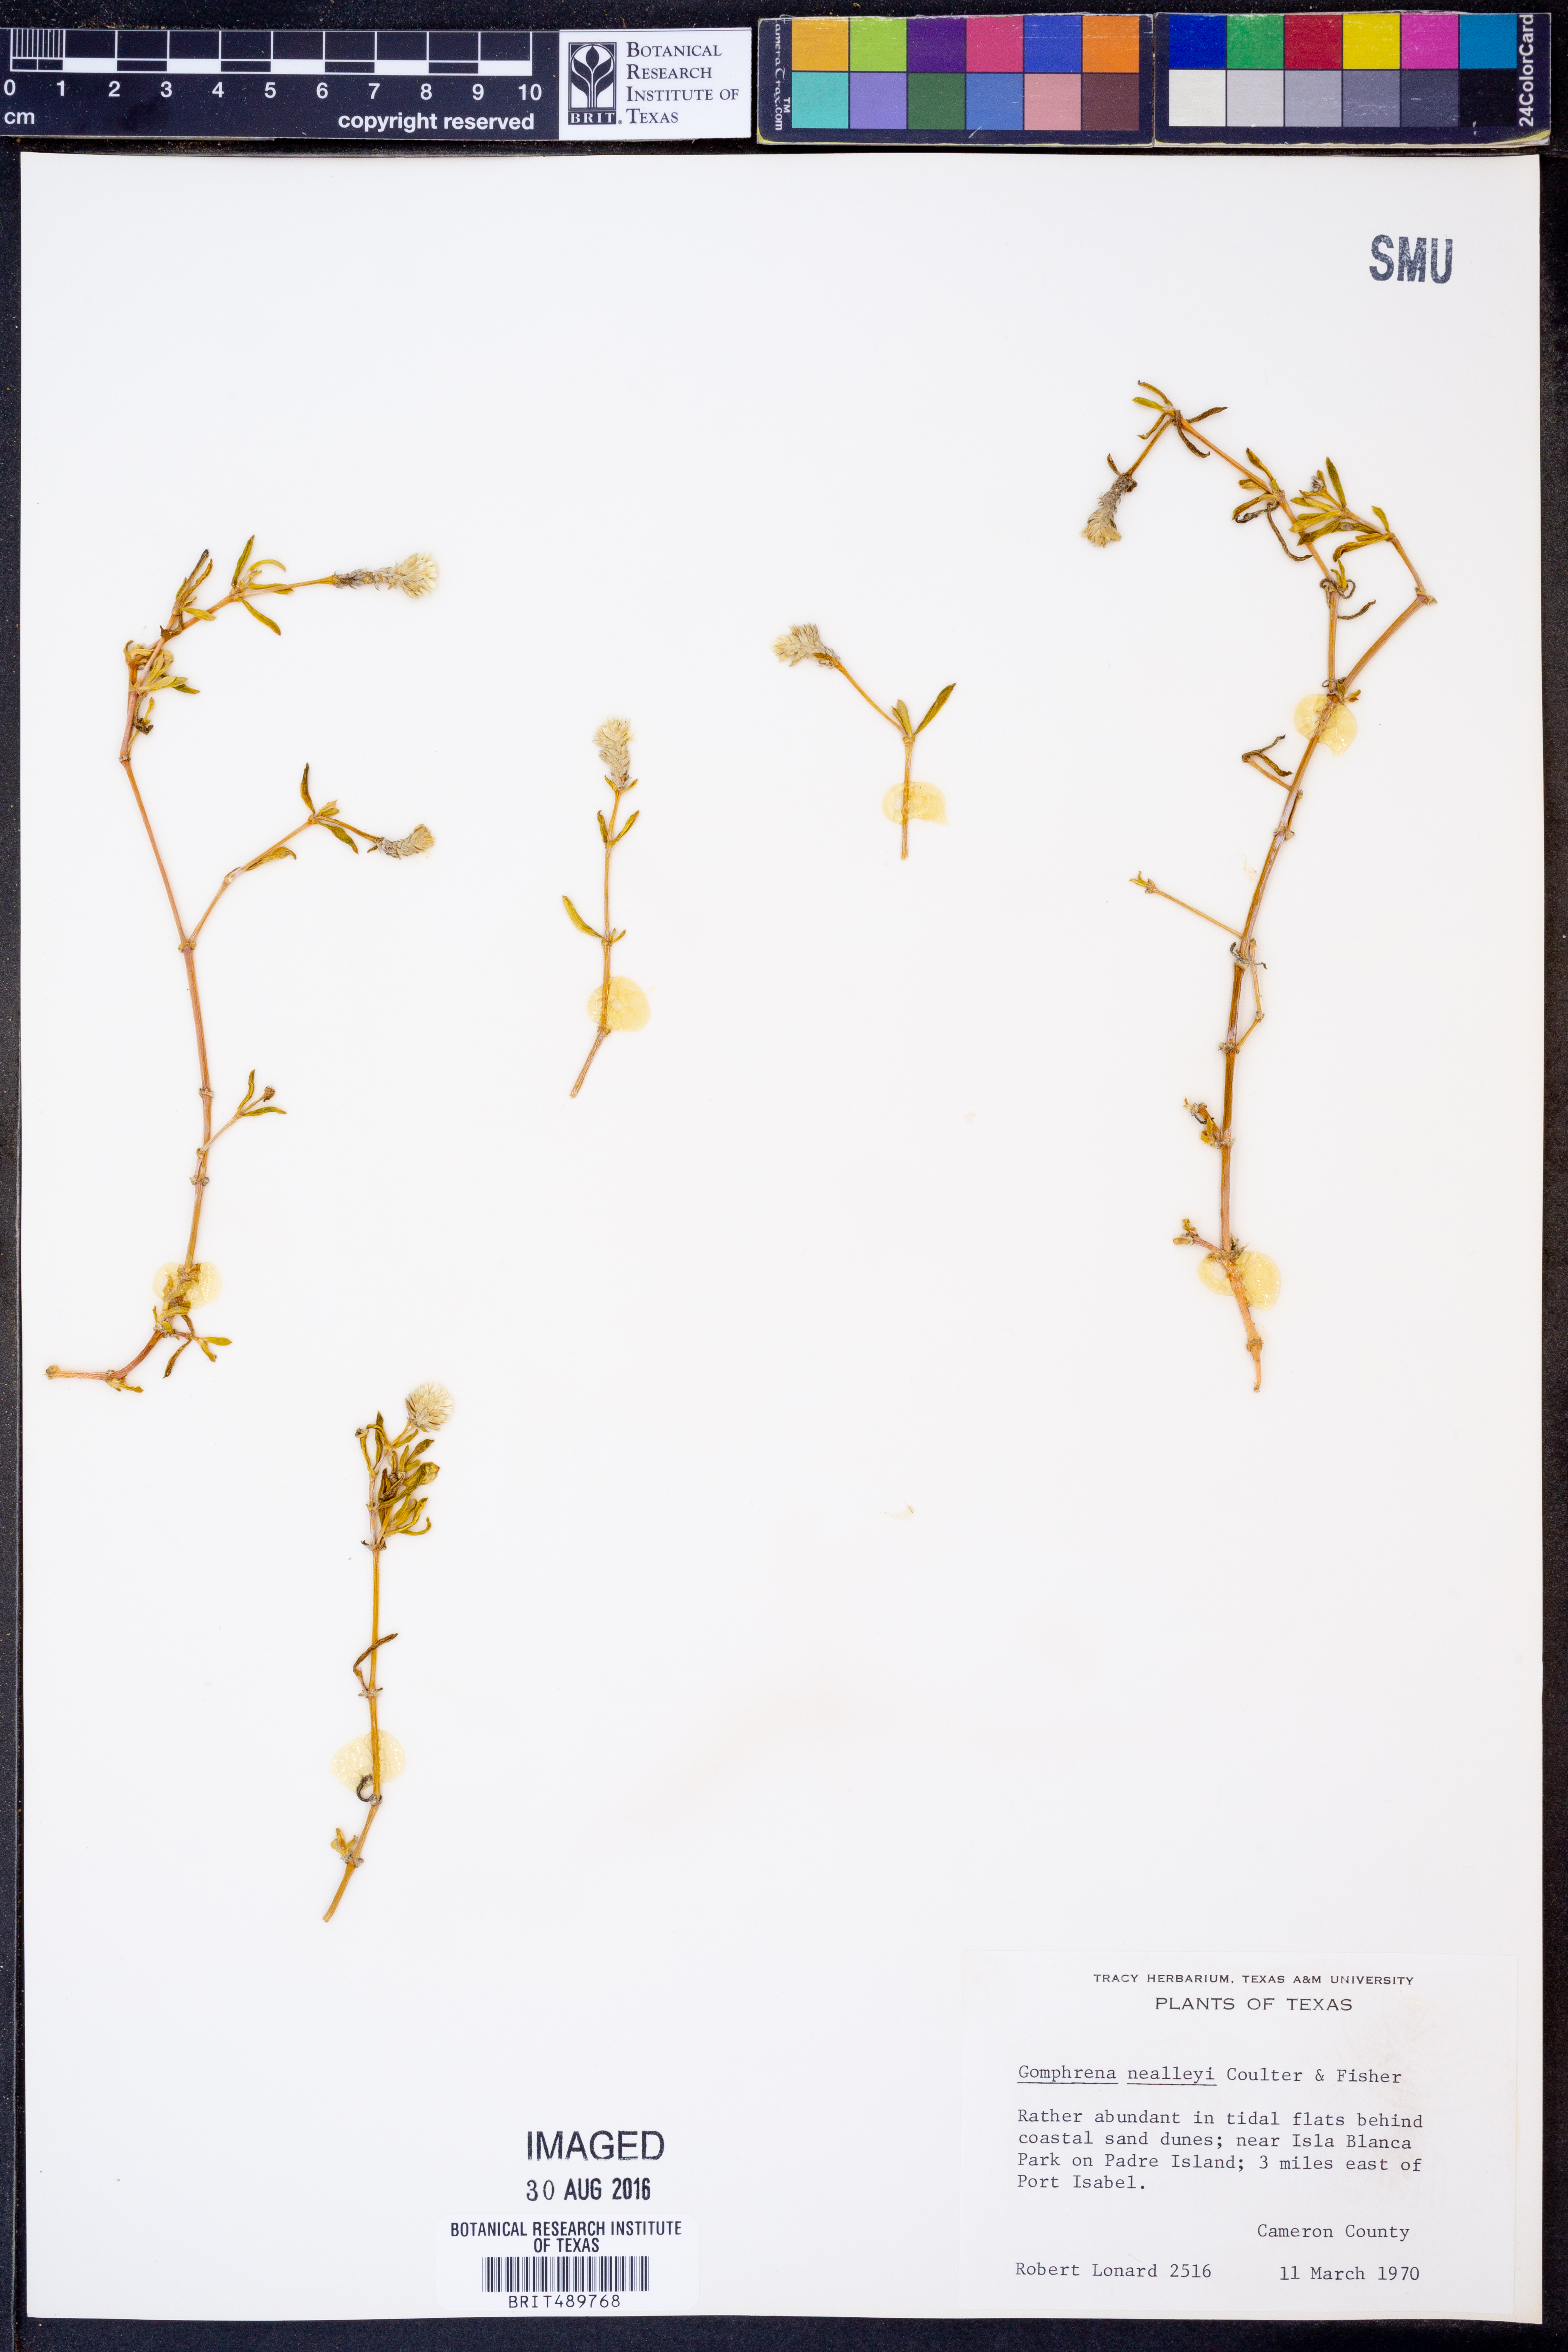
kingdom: Plantae
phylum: Tracheophyta
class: Magnoliopsida
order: Caryophyllales
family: Amaranthaceae
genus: Gomphrena
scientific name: Gomphrena nealleyi
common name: Nealley's globe-amaranth
